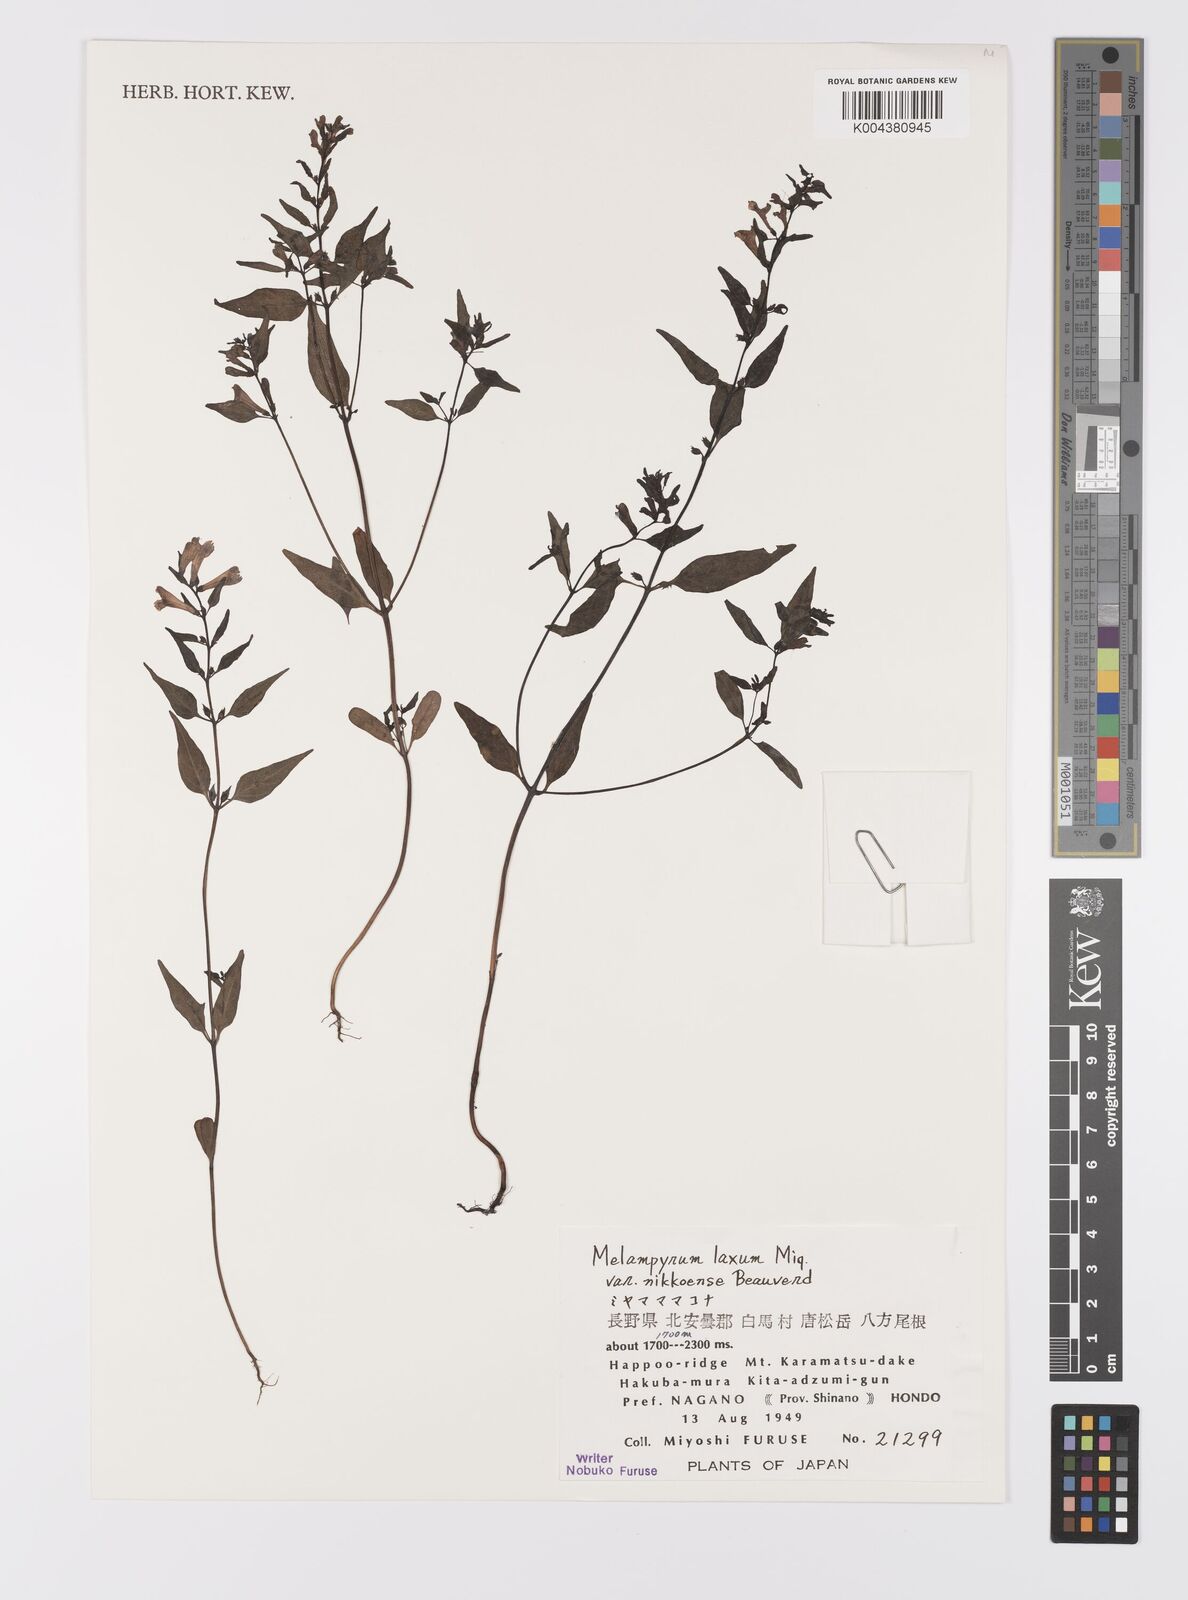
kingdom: Plantae
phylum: Tracheophyta
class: Magnoliopsida
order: Lamiales
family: Orobanchaceae
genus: Melampyrum
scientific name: Melampyrum laxum
